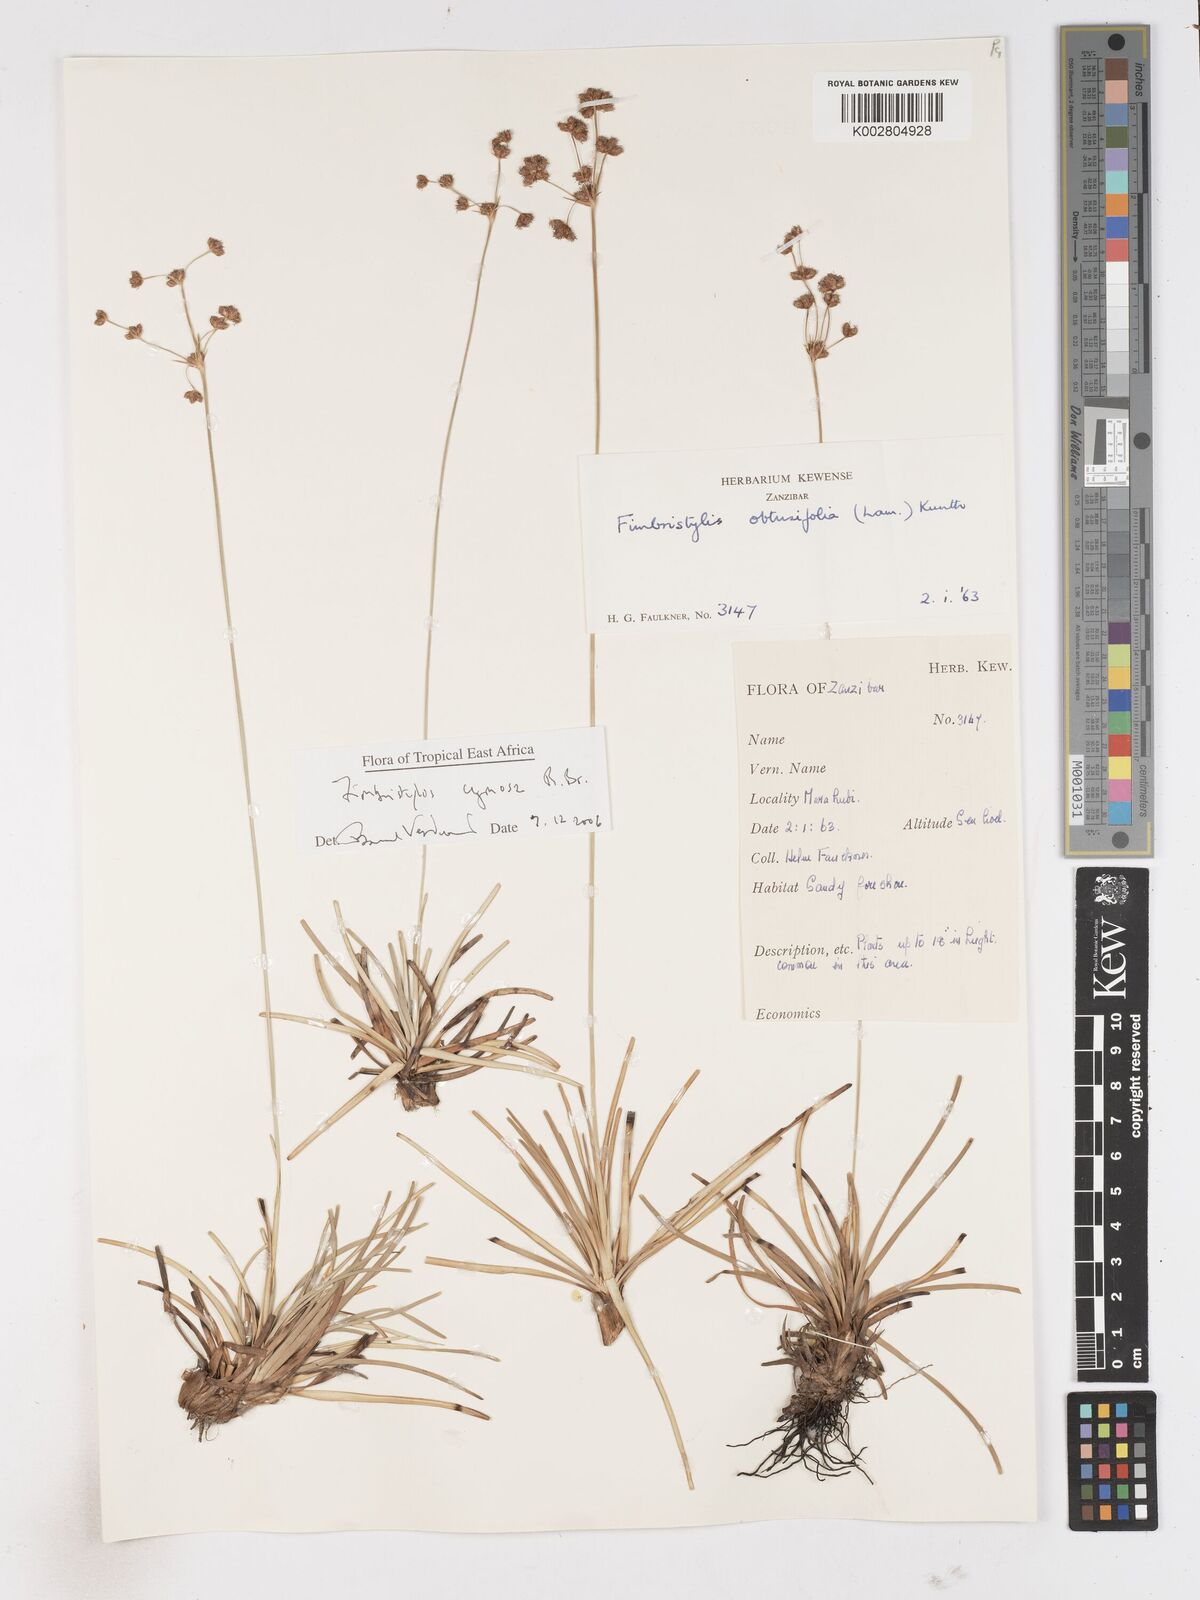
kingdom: Plantae
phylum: Tracheophyta
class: Liliopsida
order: Poales
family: Cyperaceae
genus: Fimbristylis
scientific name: Fimbristylis cymosa
